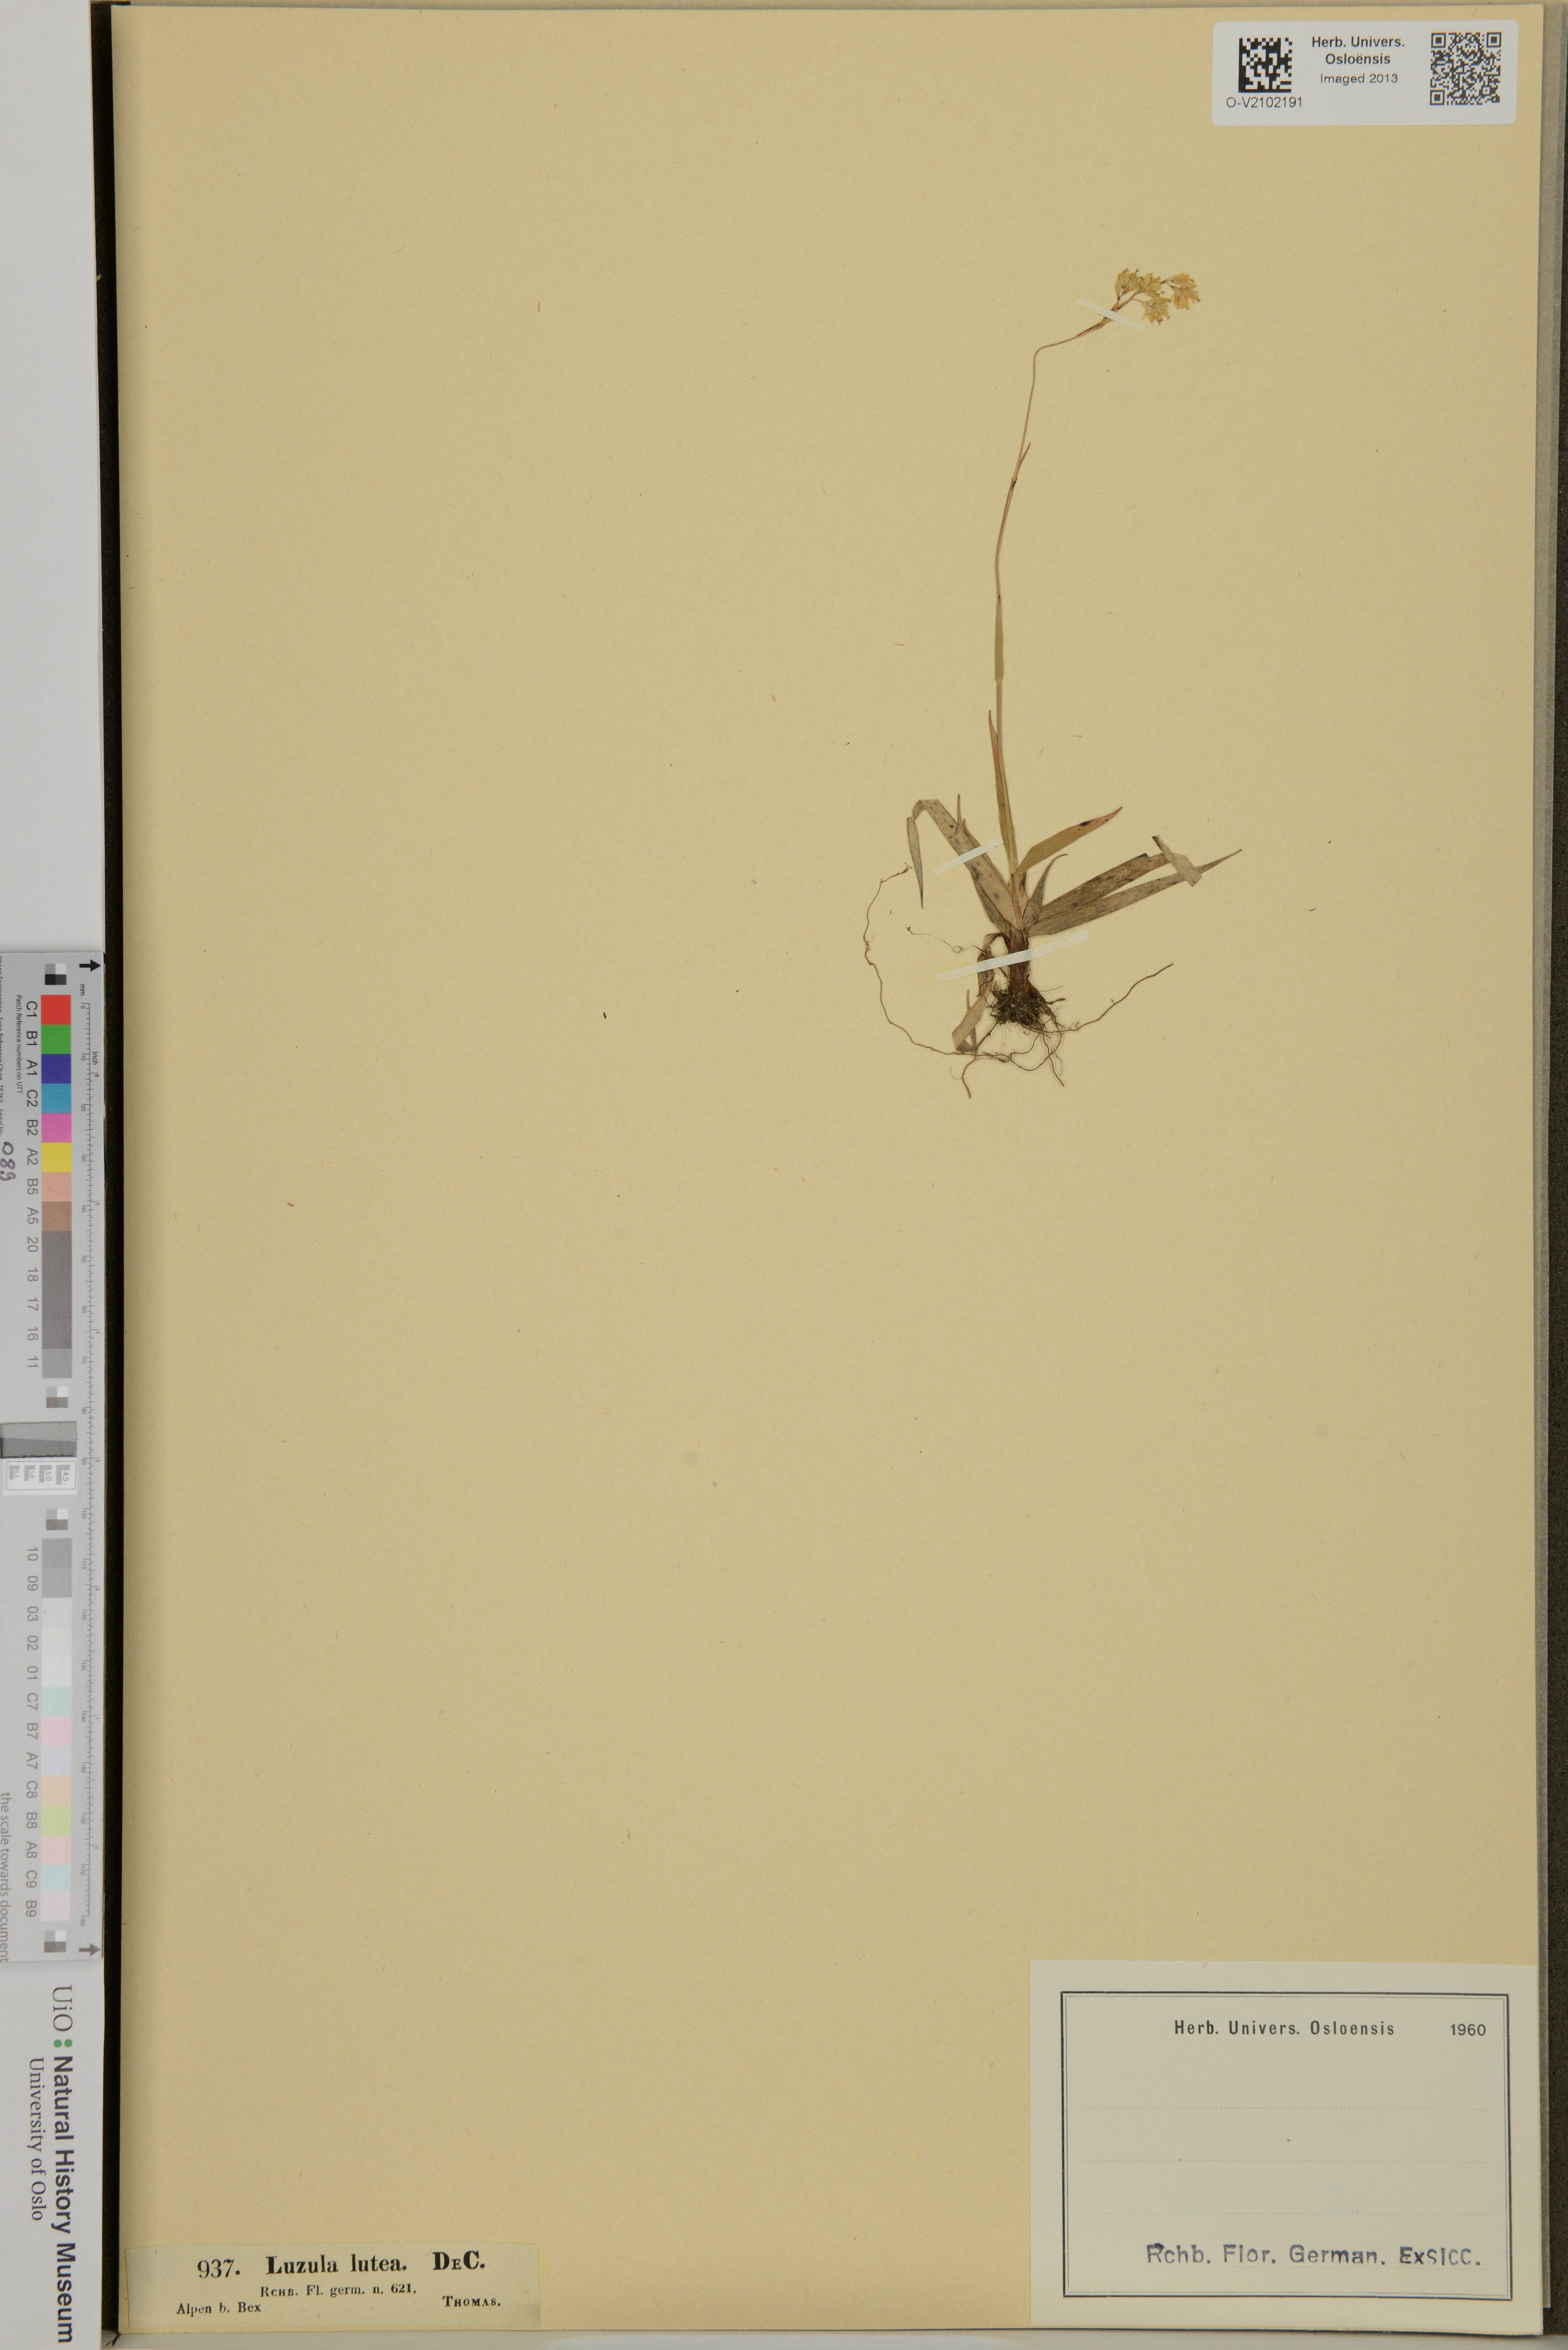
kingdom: Plantae
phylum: Tracheophyta
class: Liliopsida
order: Poales
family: Juncaceae
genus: Luzula
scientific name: Luzula lutea
